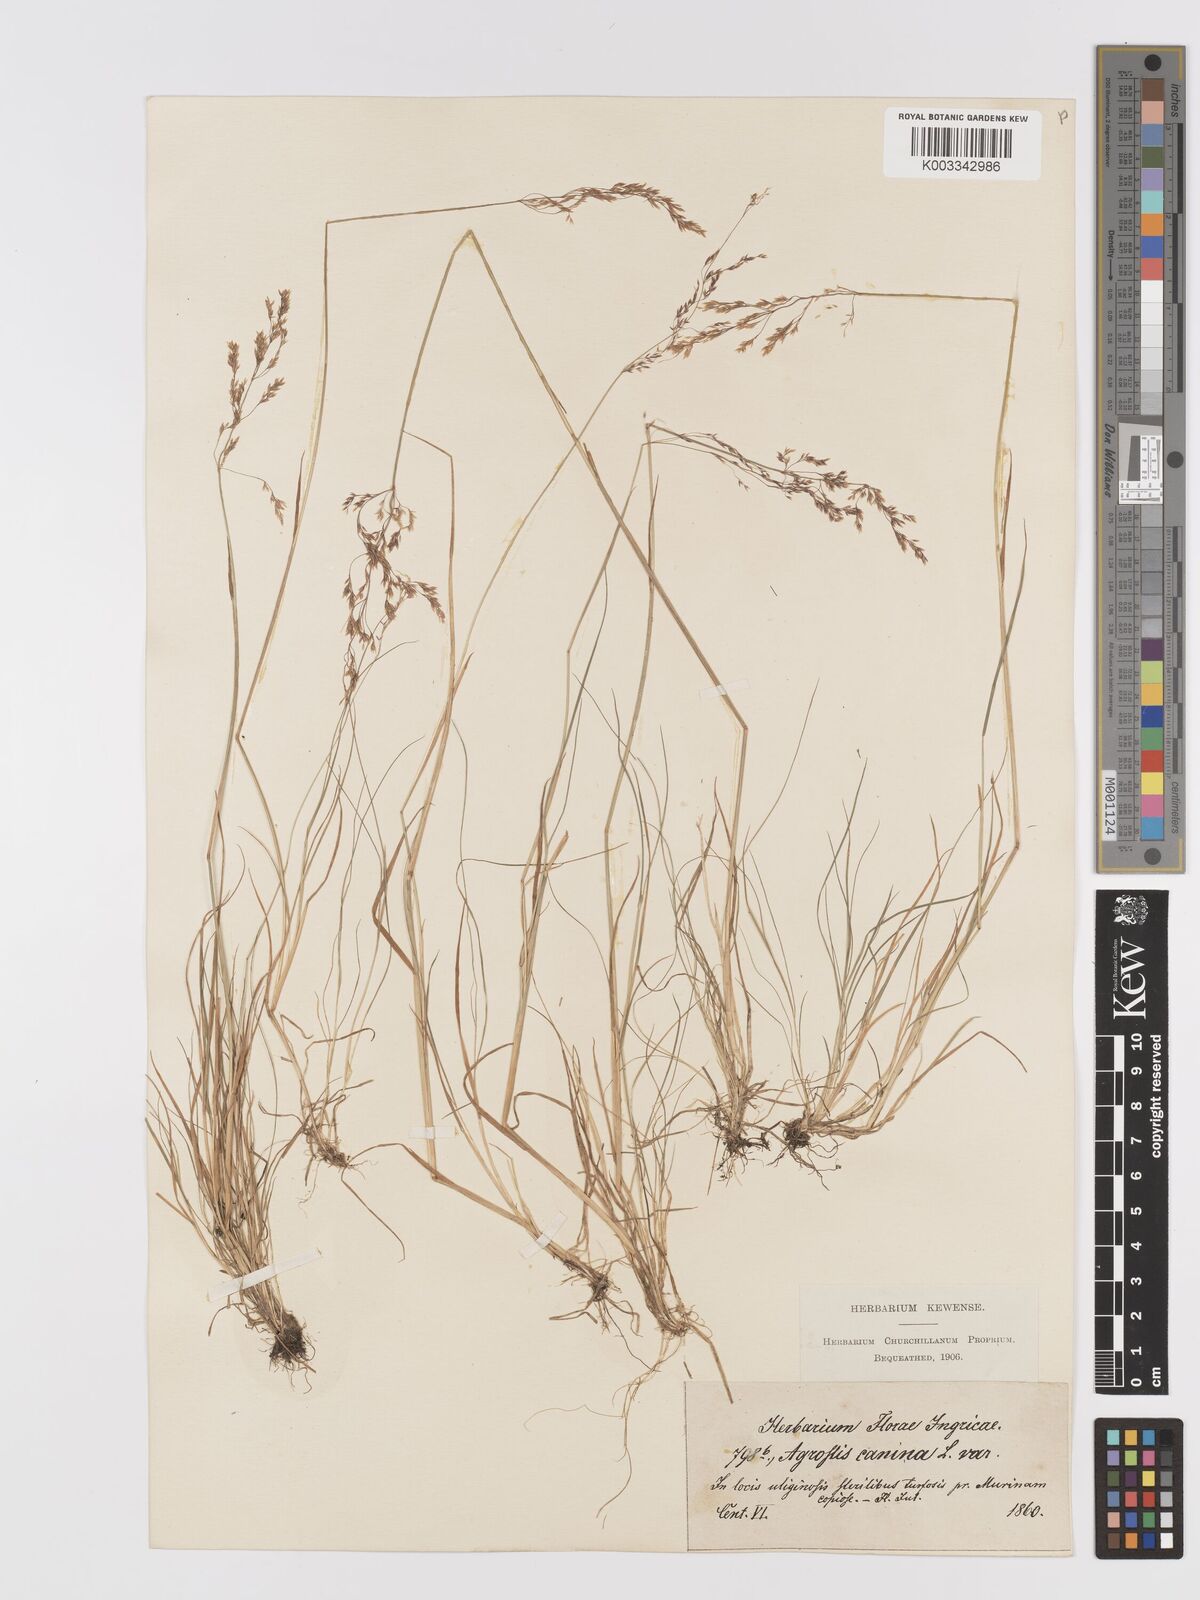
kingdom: Plantae
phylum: Tracheophyta
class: Liliopsida
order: Poales
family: Poaceae
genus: Agrostis
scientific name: Agrostis canina
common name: Velvet bent
